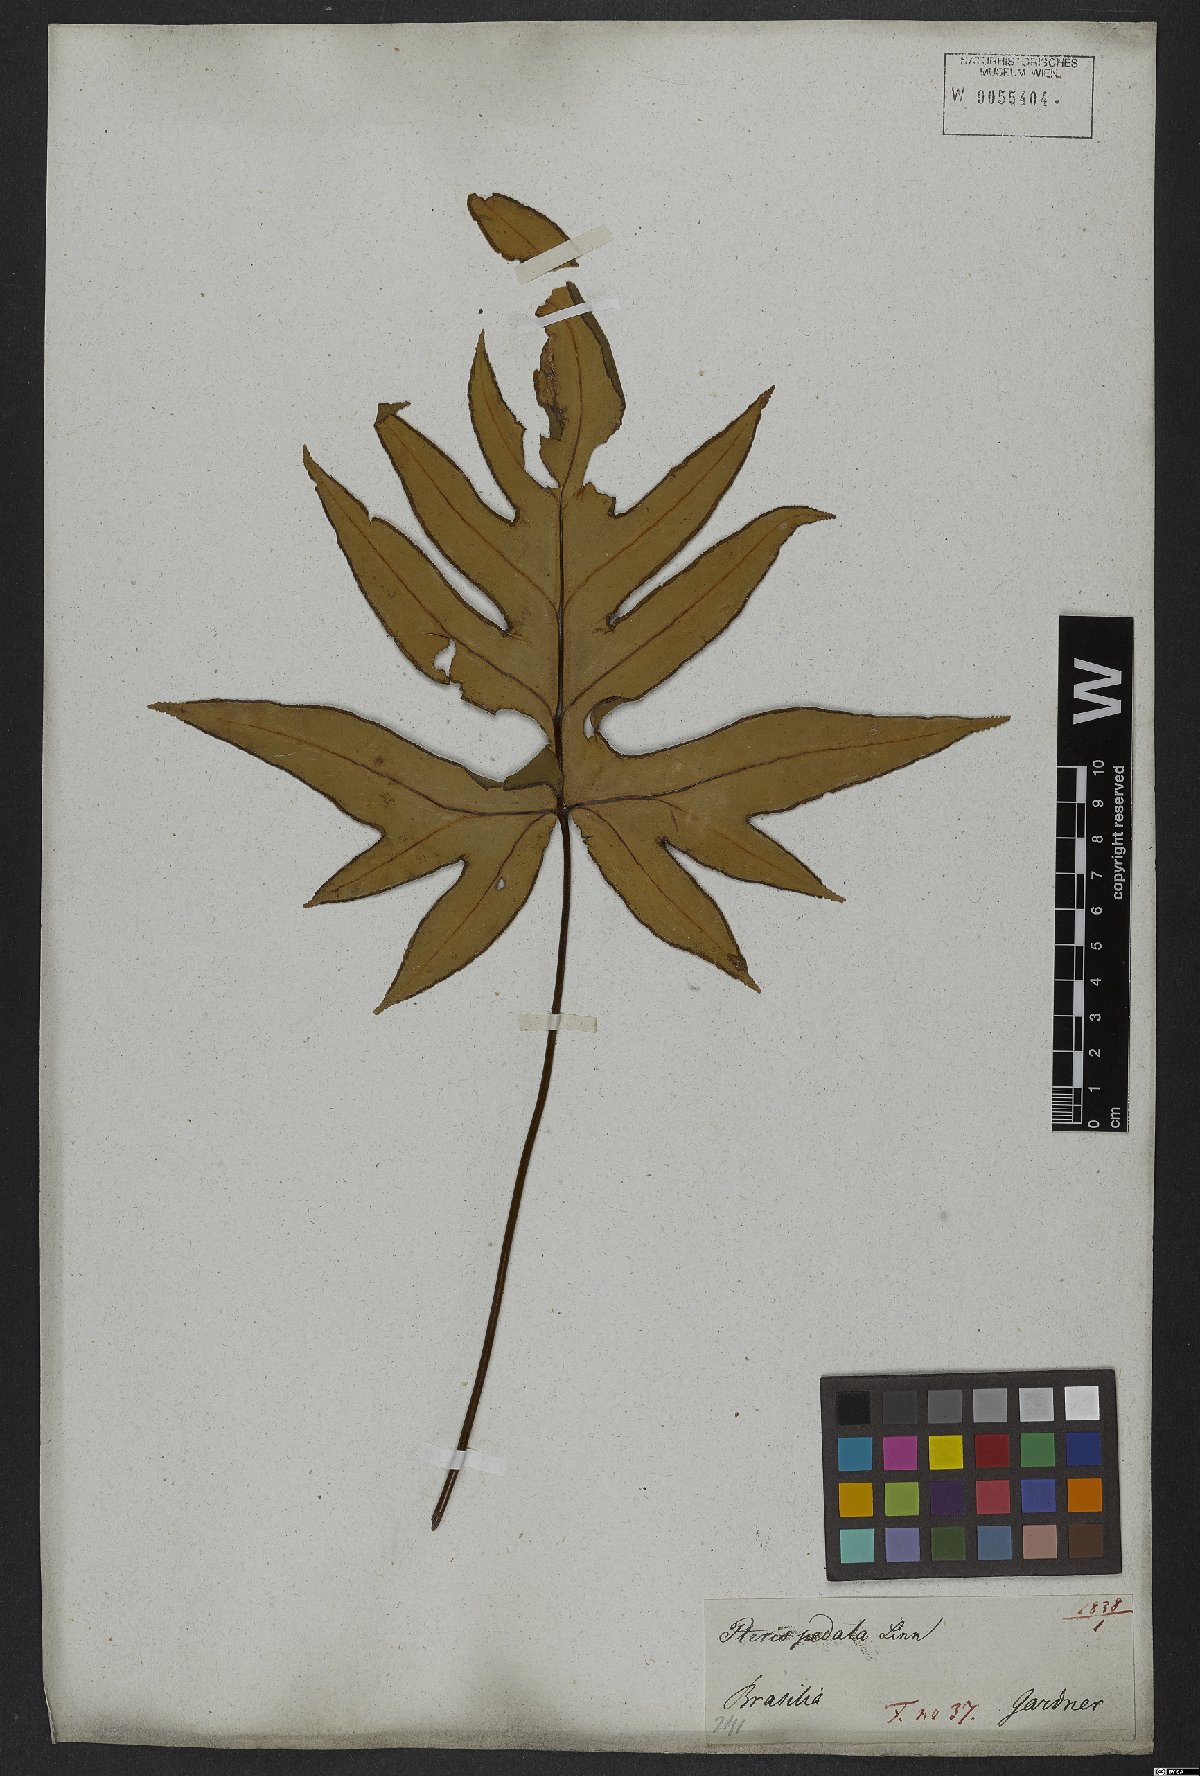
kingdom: Plantae
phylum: Tracheophyta
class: Polypodiopsida
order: Polypodiales
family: Pteridaceae
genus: Doryopteris
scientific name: Doryopteris pedata
